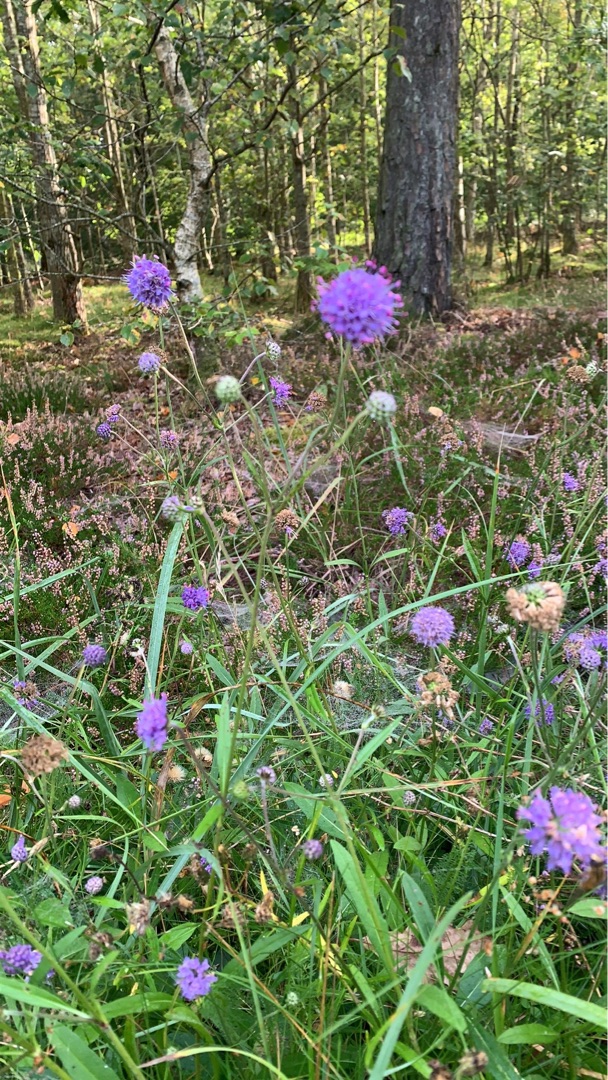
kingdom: Plantae
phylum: Tracheophyta
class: Magnoliopsida
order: Dipsacales
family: Caprifoliaceae
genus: Succisa
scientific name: Succisa pratensis
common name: Djævelsbid
